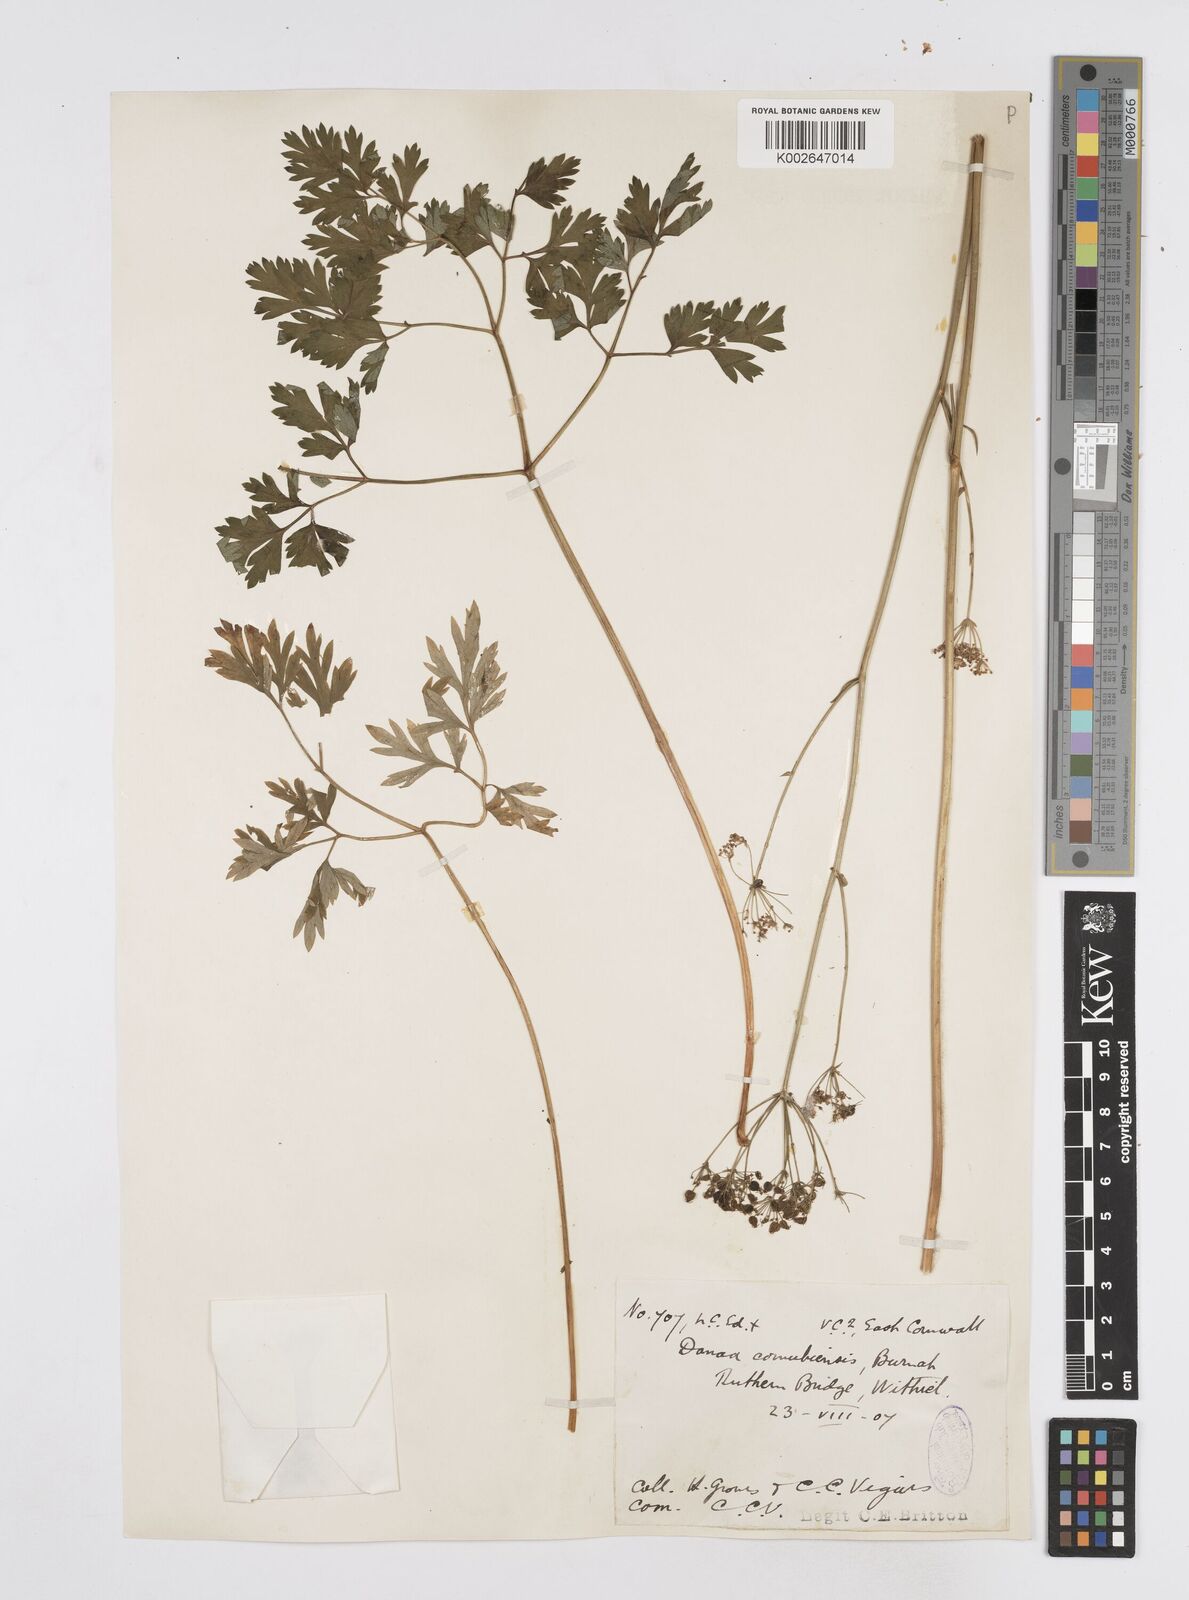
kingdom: Plantae
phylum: Tracheophyta
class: Magnoliopsida
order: Apiales
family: Apiaceae
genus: Physospermum
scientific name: Physospermum cornubiense
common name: Bladderseed
